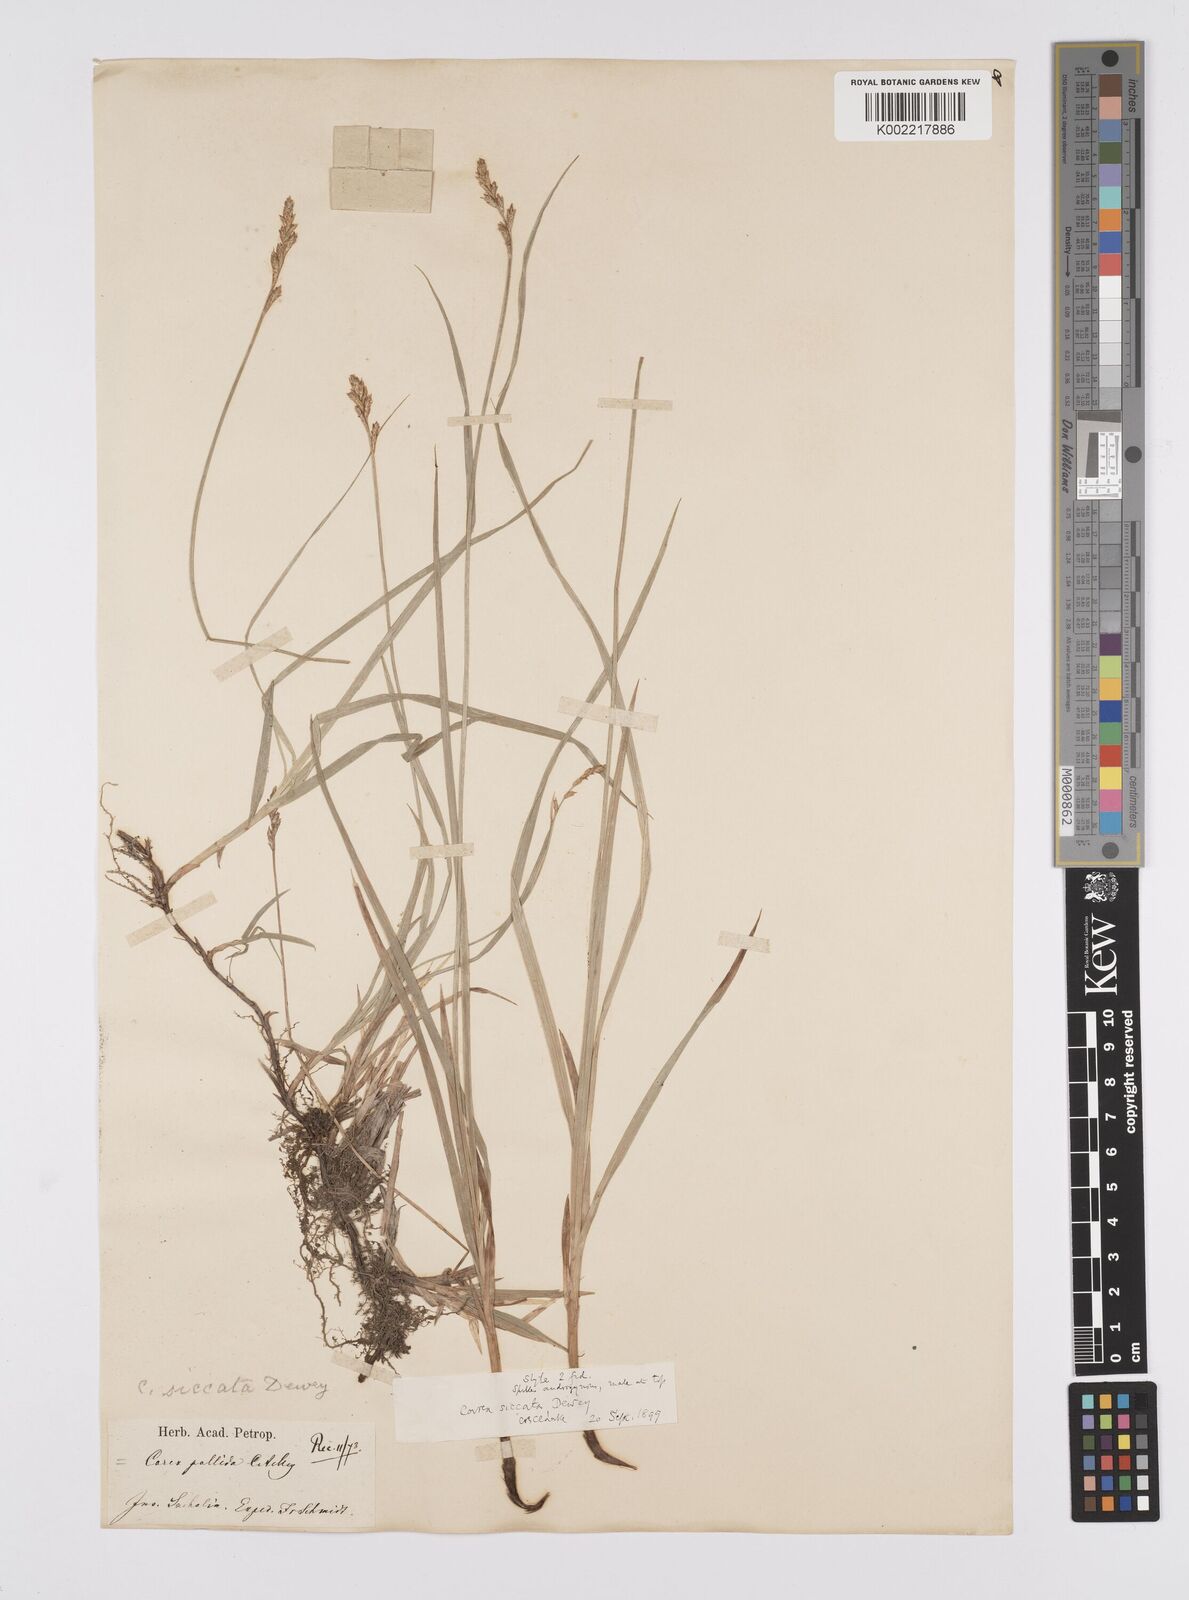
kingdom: Plantae
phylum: Tracheophyta
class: Liliopsida
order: Poales
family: Cyperaceae
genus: Carex
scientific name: Carex siccata
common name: Dry sedge
